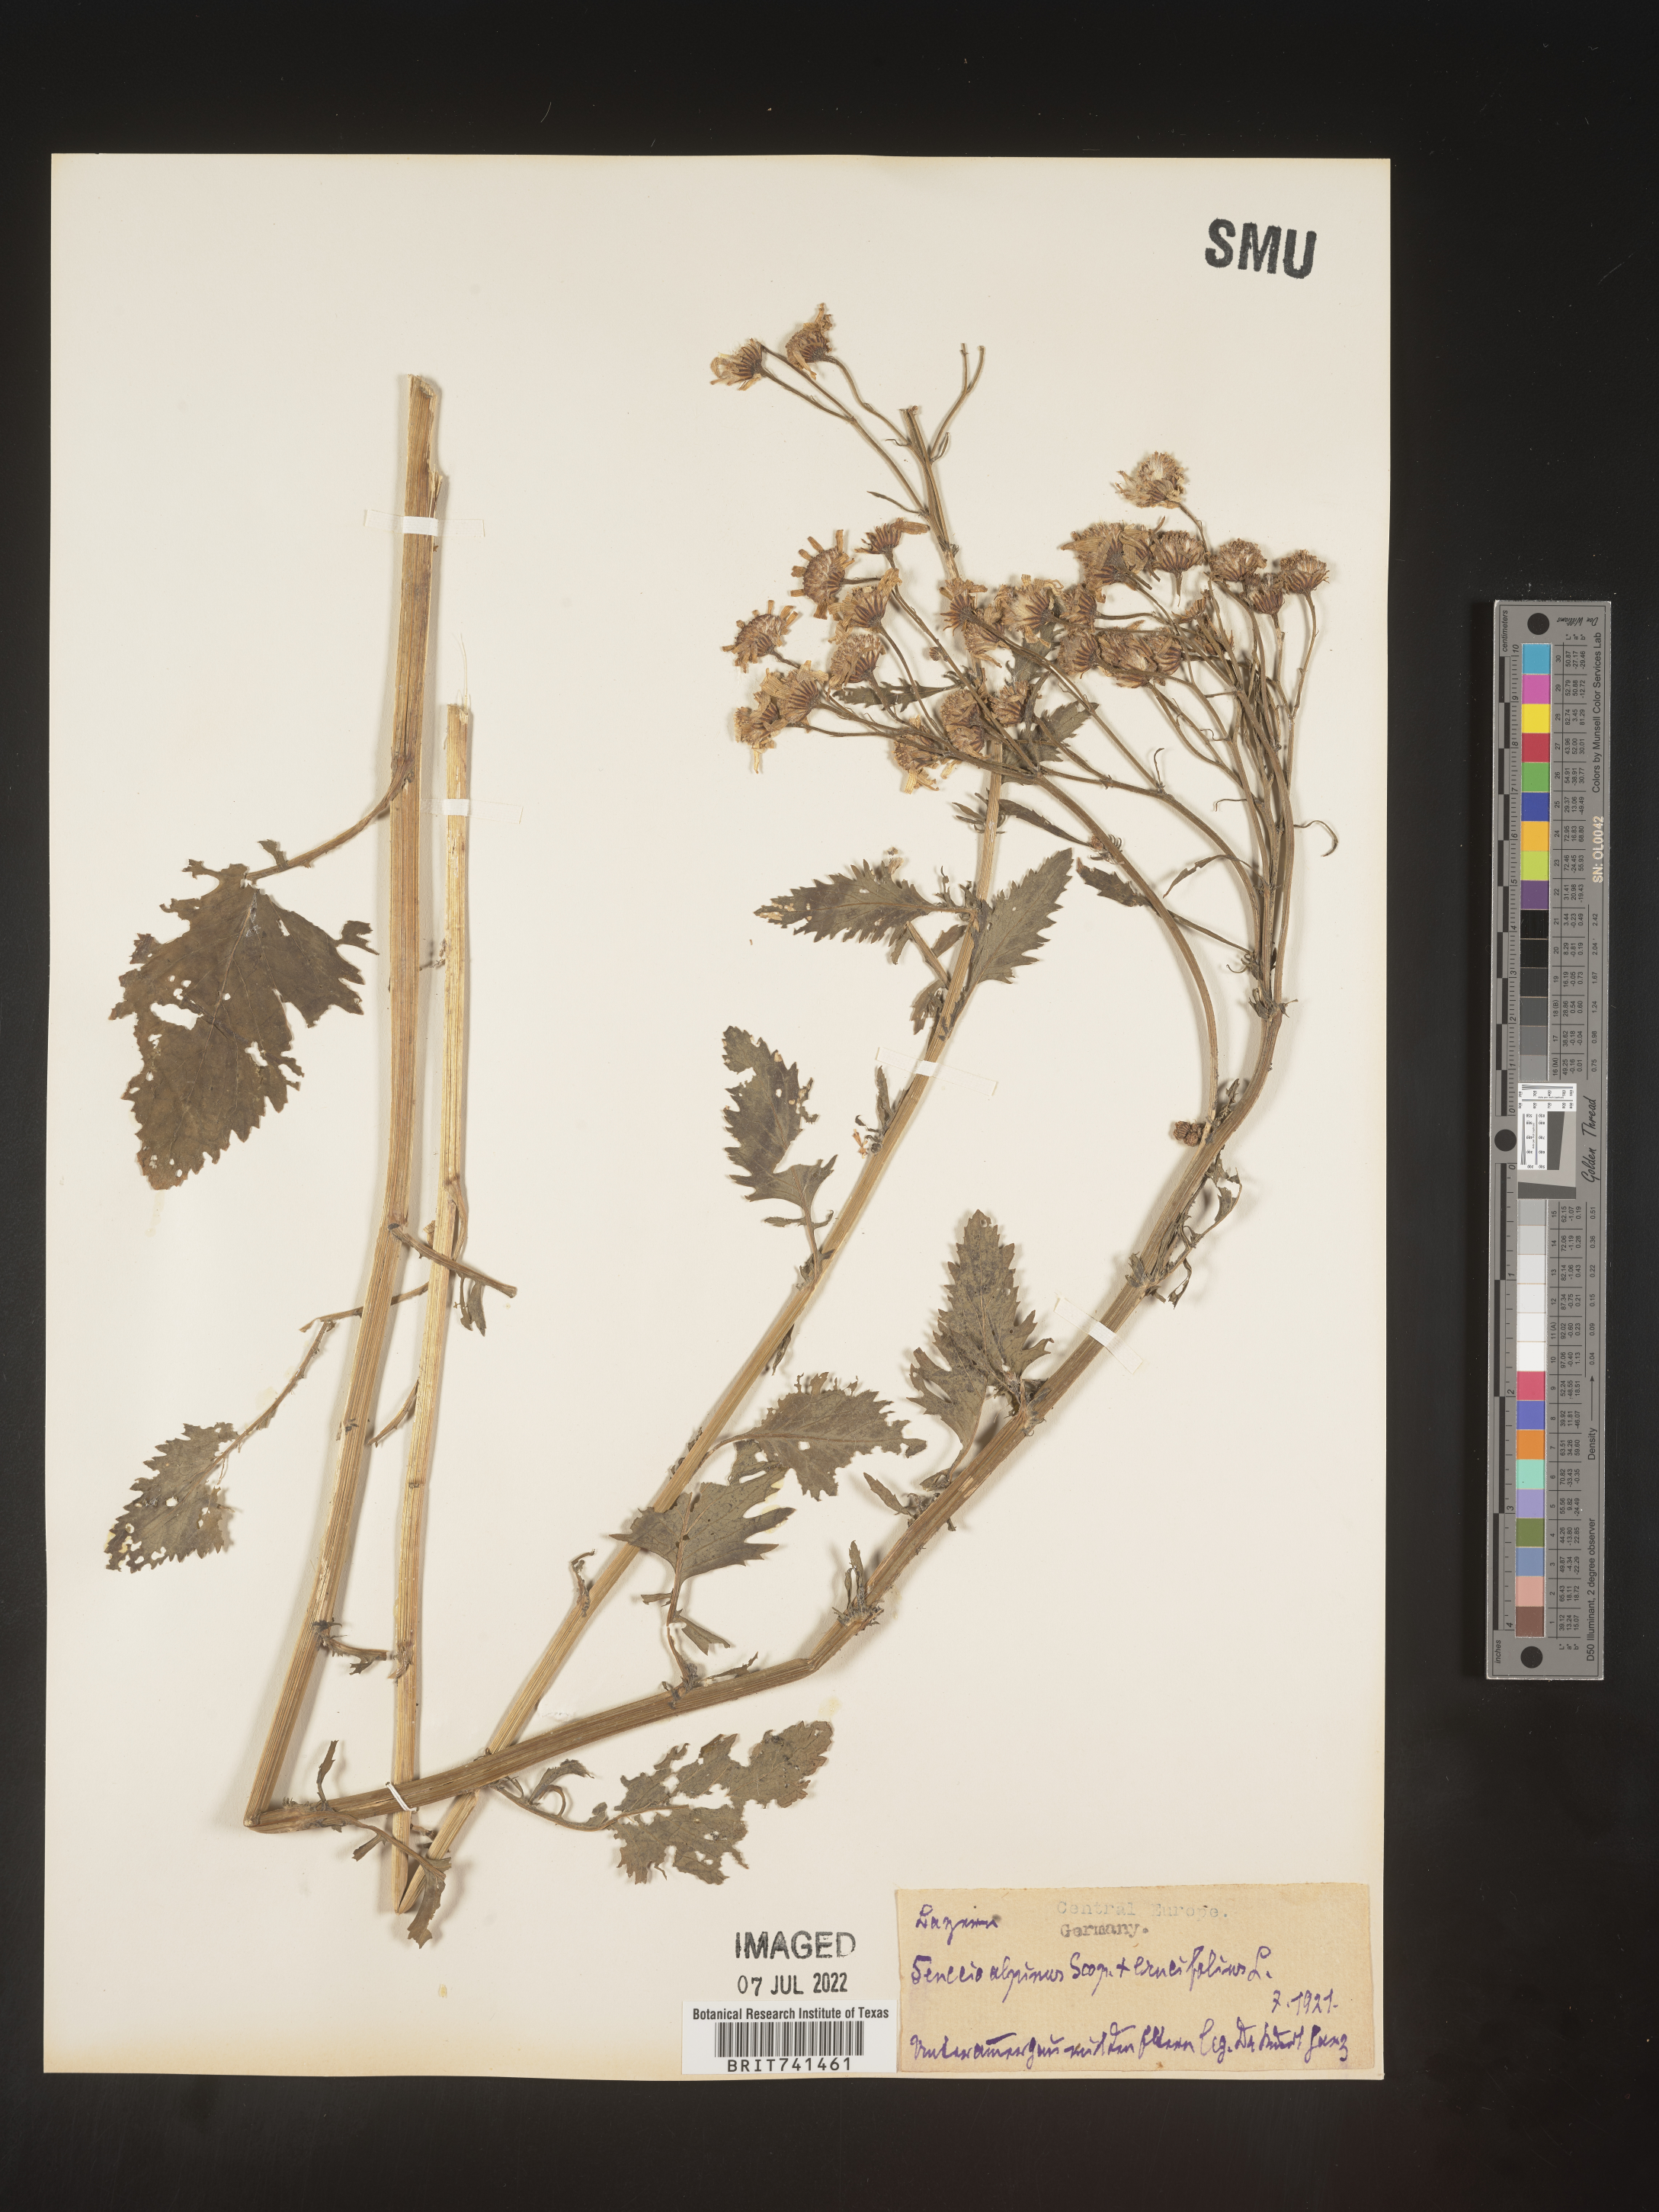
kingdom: Plantae
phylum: Tracheophyta
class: Magnoliopsida
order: Asterales
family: Asteraceae
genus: Senecio
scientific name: Senecio
